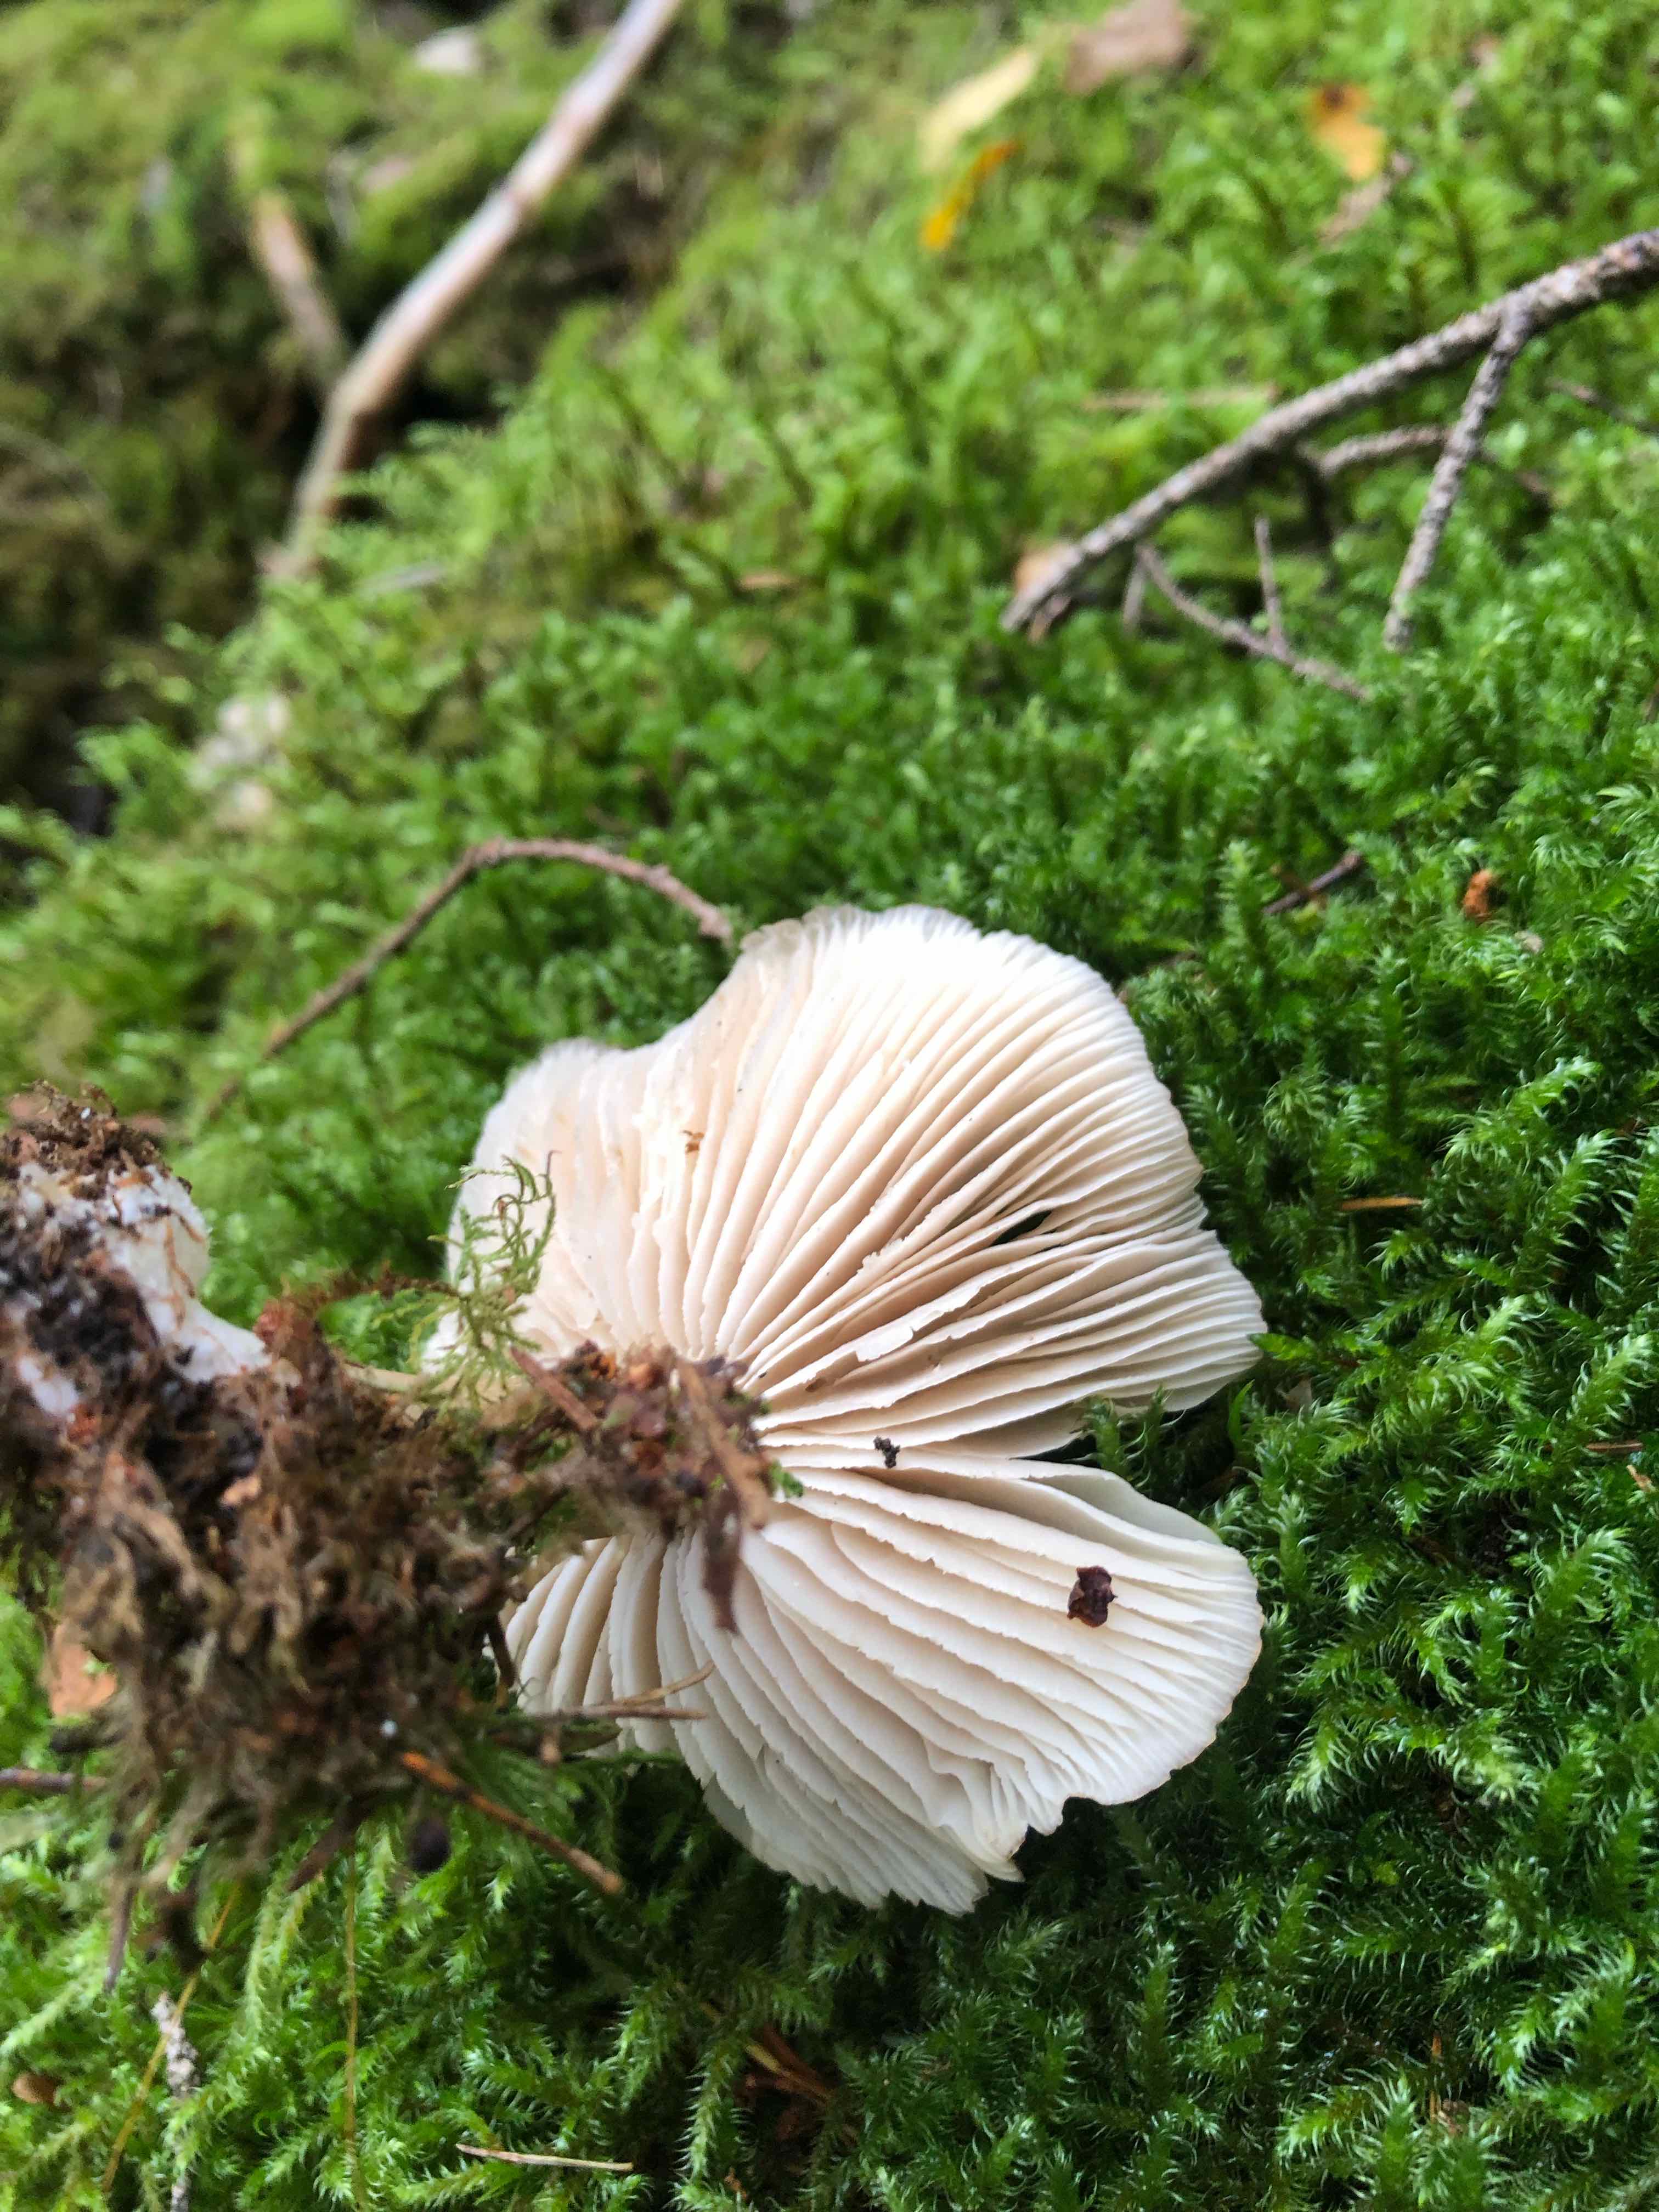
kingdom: Fungi
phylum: Basidiomycota
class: Agaricomycetes
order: Agaricales
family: Tricholomataceae
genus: Megacollybia
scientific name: Megacollybia platyphylla
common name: bredbladet væbnerhat
